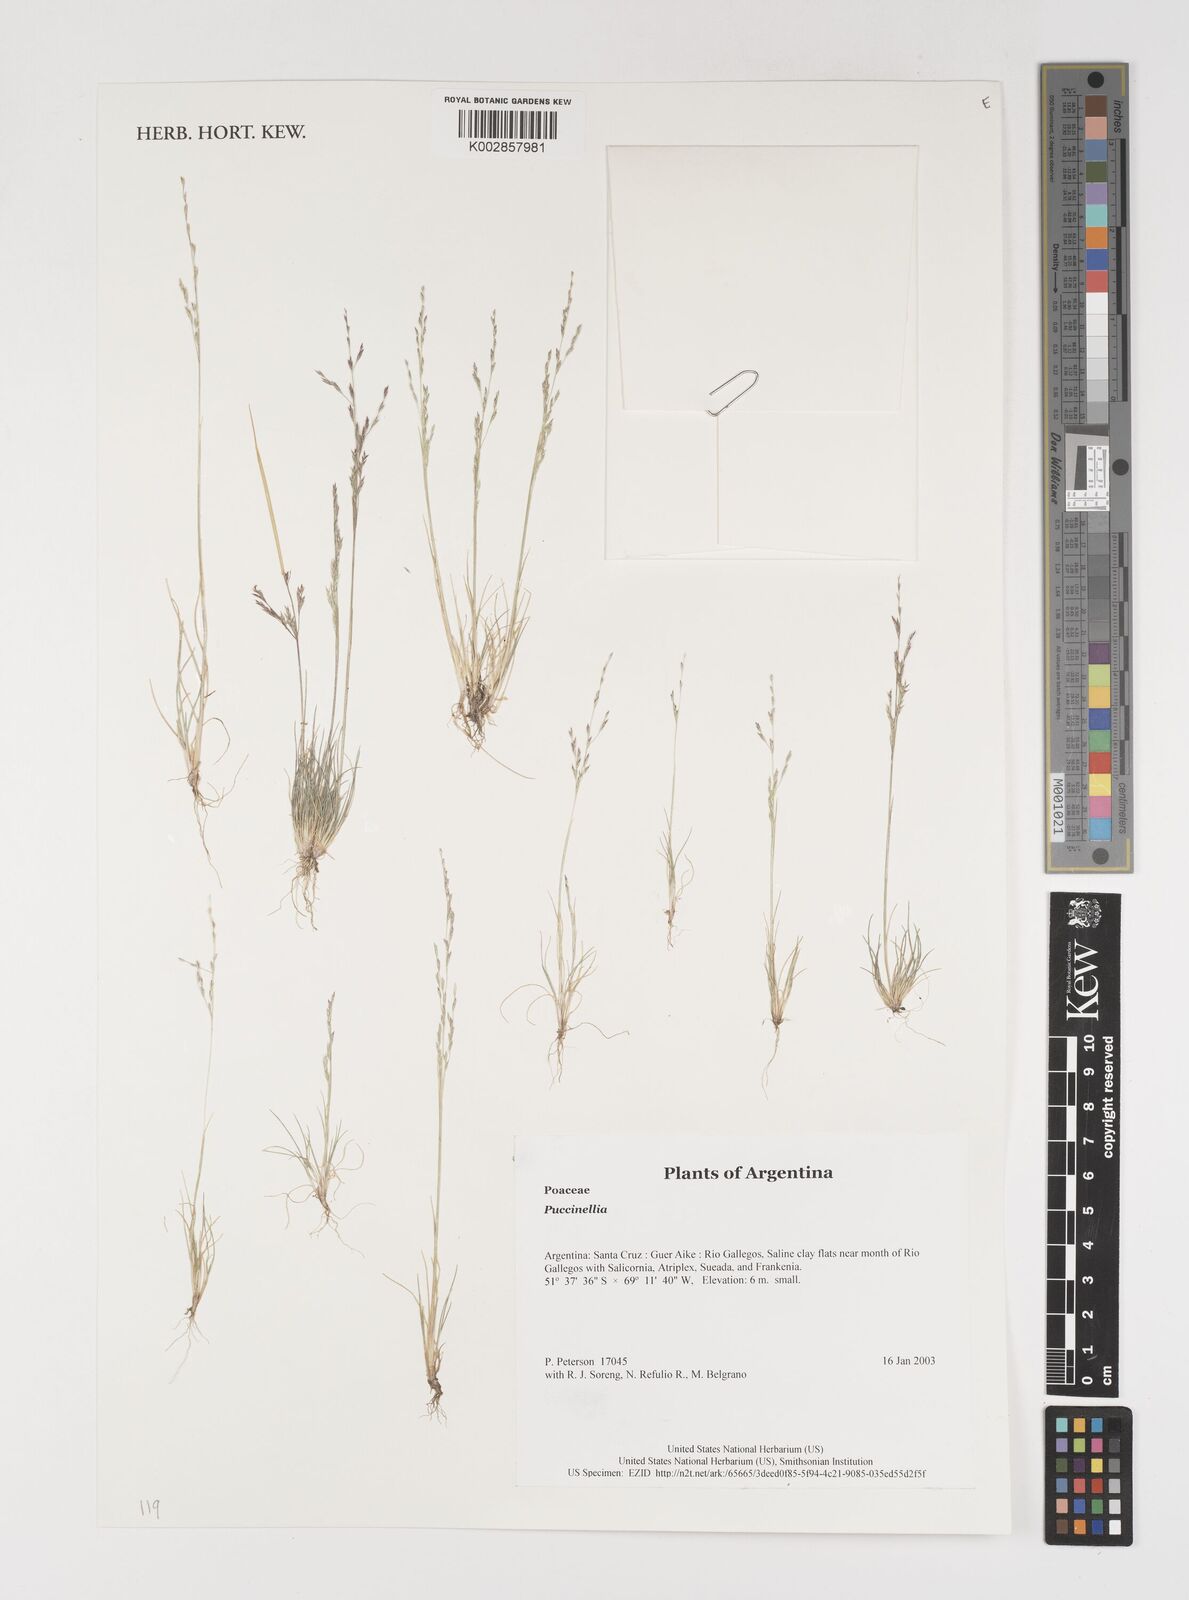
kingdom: Plantae
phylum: Tracheophyta
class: Liliopsida
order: Poales
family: Poaceae
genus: Puccinellia
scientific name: Puccinellia
